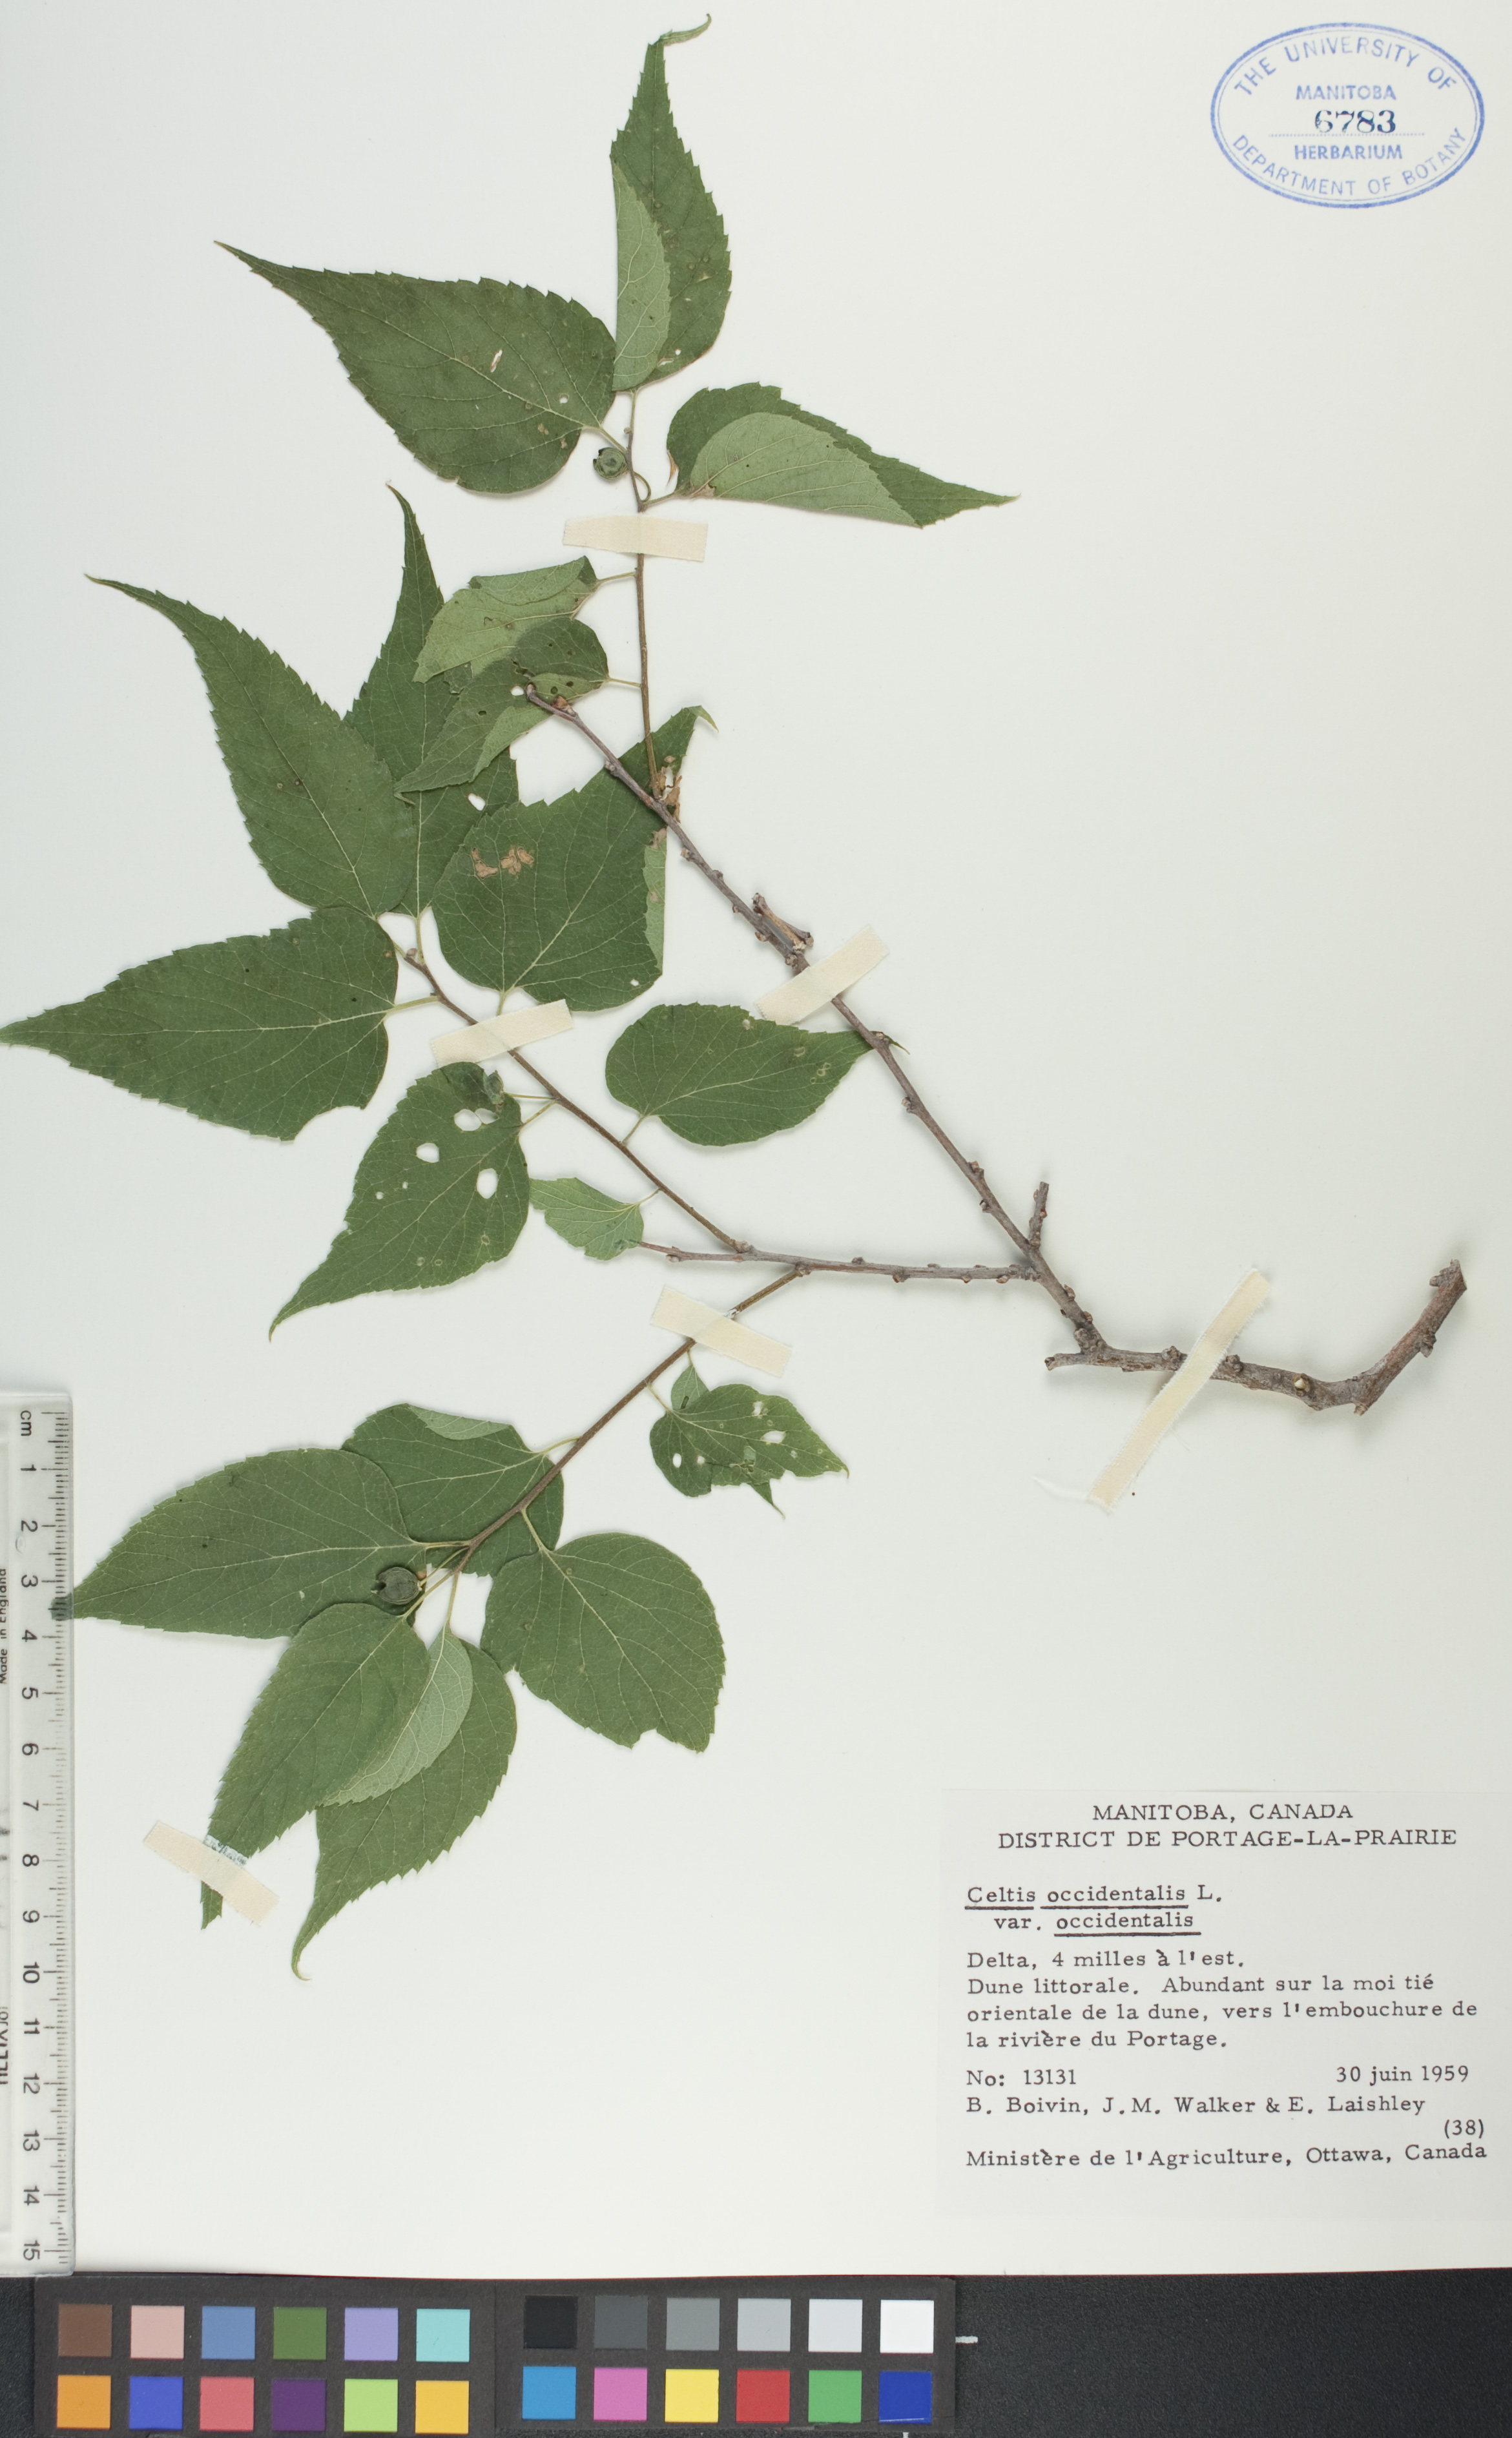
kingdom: Plantae
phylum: Tracheophyta
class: Magnoliopsida
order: Rosales
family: Cannabaceae
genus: Celtis
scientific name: Celtis occidentalis
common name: Common hackberry
